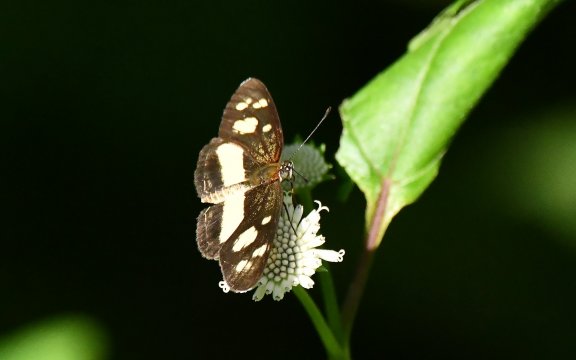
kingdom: Animalia
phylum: Arthropoda
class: Insecta
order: Lepidoptera
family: Nymphalidae
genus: Eresia
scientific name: Eresia clio
